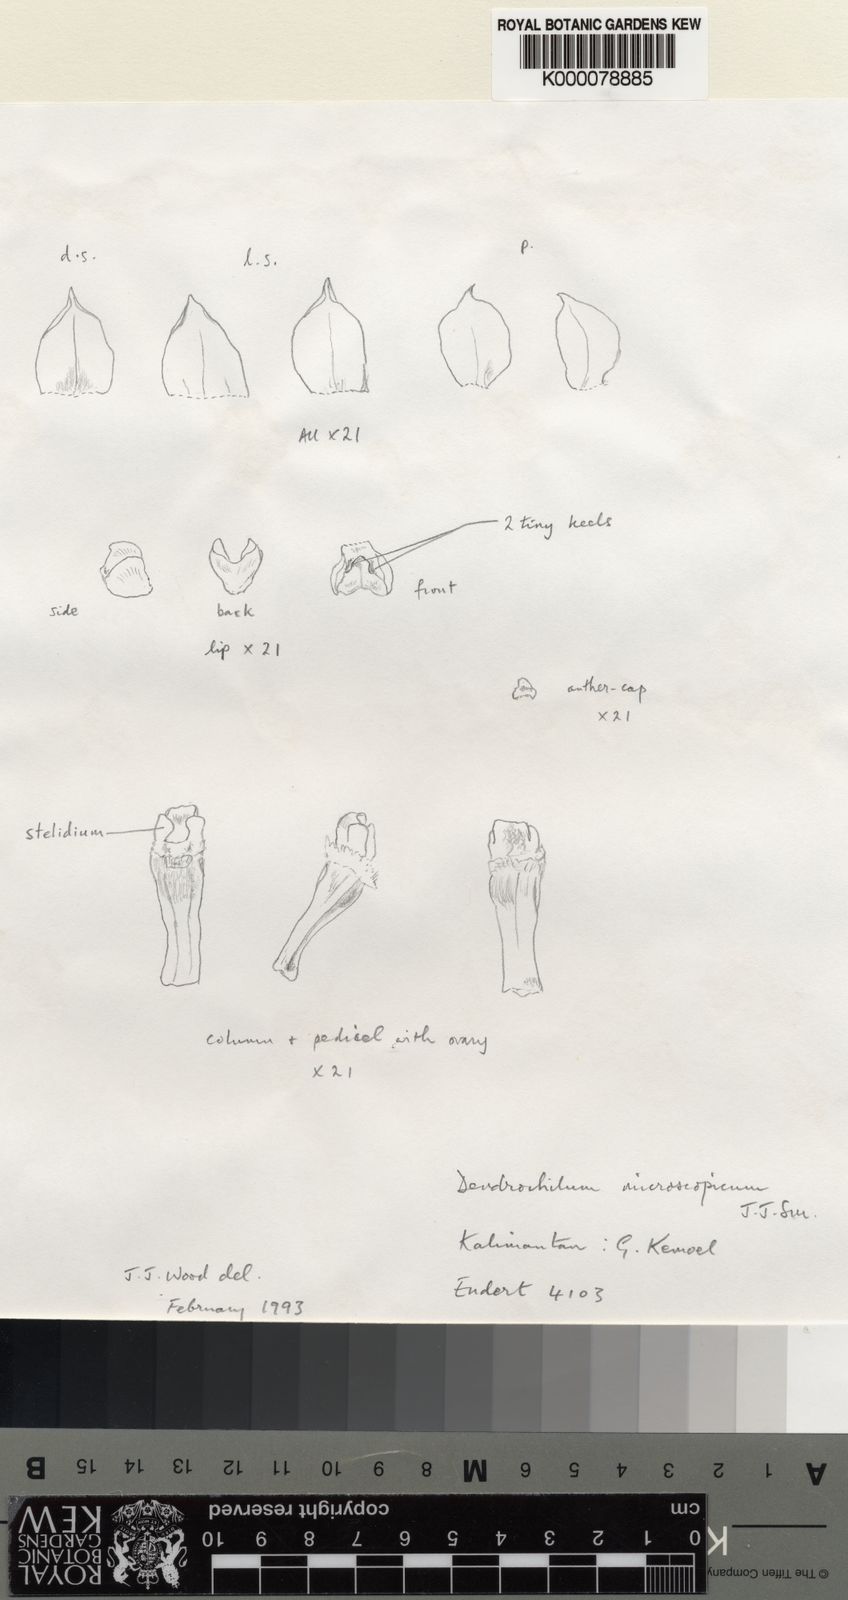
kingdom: Plantae
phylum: Tracheophyta
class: Liliopsida
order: Asparagales
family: Orchidaceae
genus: Coelogyne
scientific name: Coelogyne microscopica
